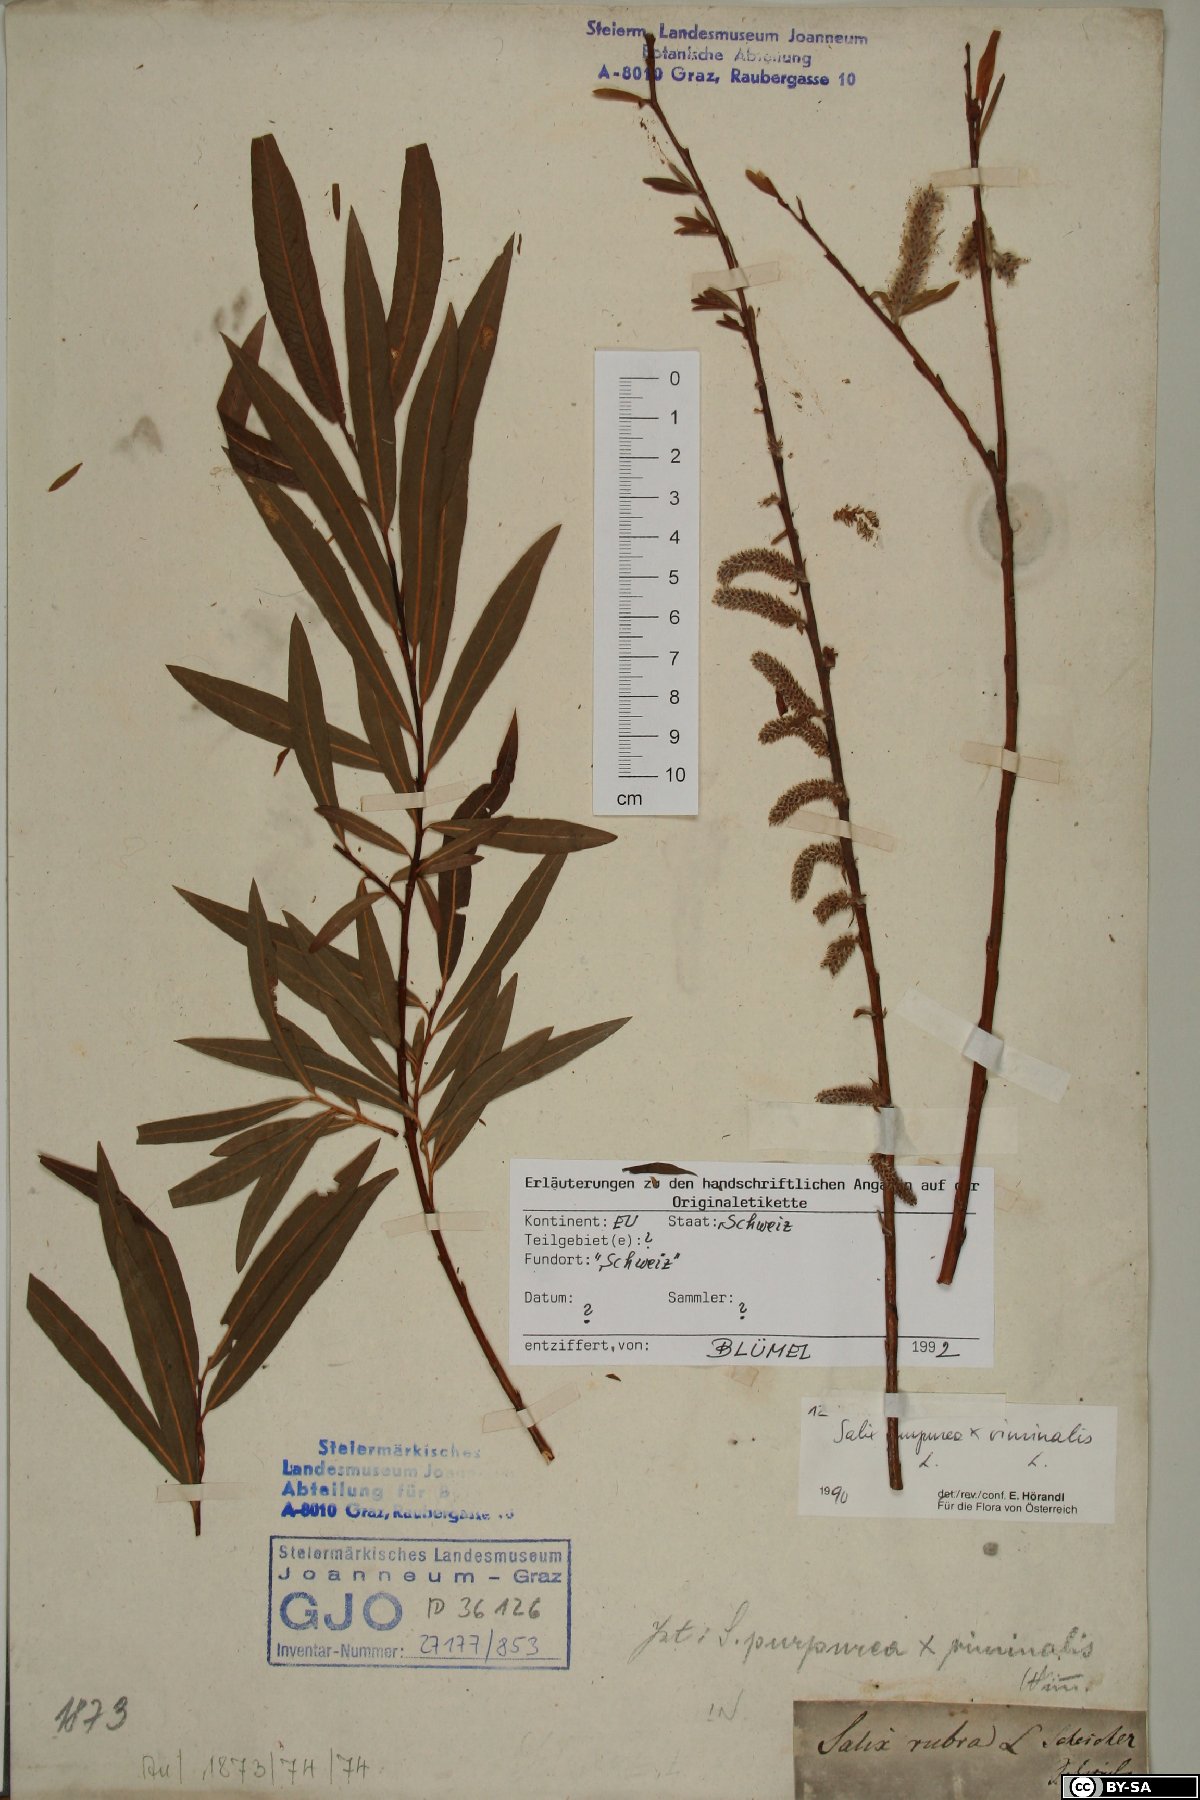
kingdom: Plantae
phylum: Tracheophyta
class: Magnoliopsida
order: Malpighiales
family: Salicaceae
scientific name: Salicaceae
